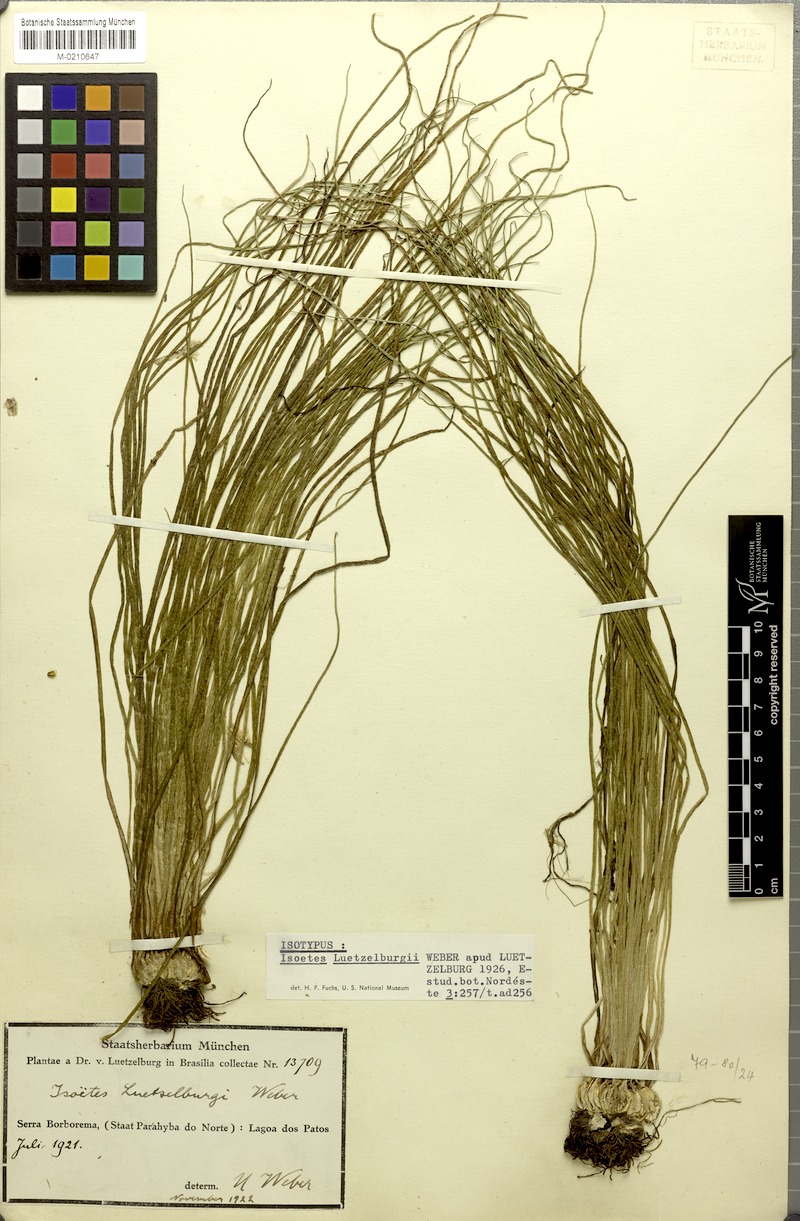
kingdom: Plantae
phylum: Tracheophyta
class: Lycopodiopsida
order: Isoetales
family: Isoetaceae
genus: Isoetes
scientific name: Isoetes luetzelburgii
